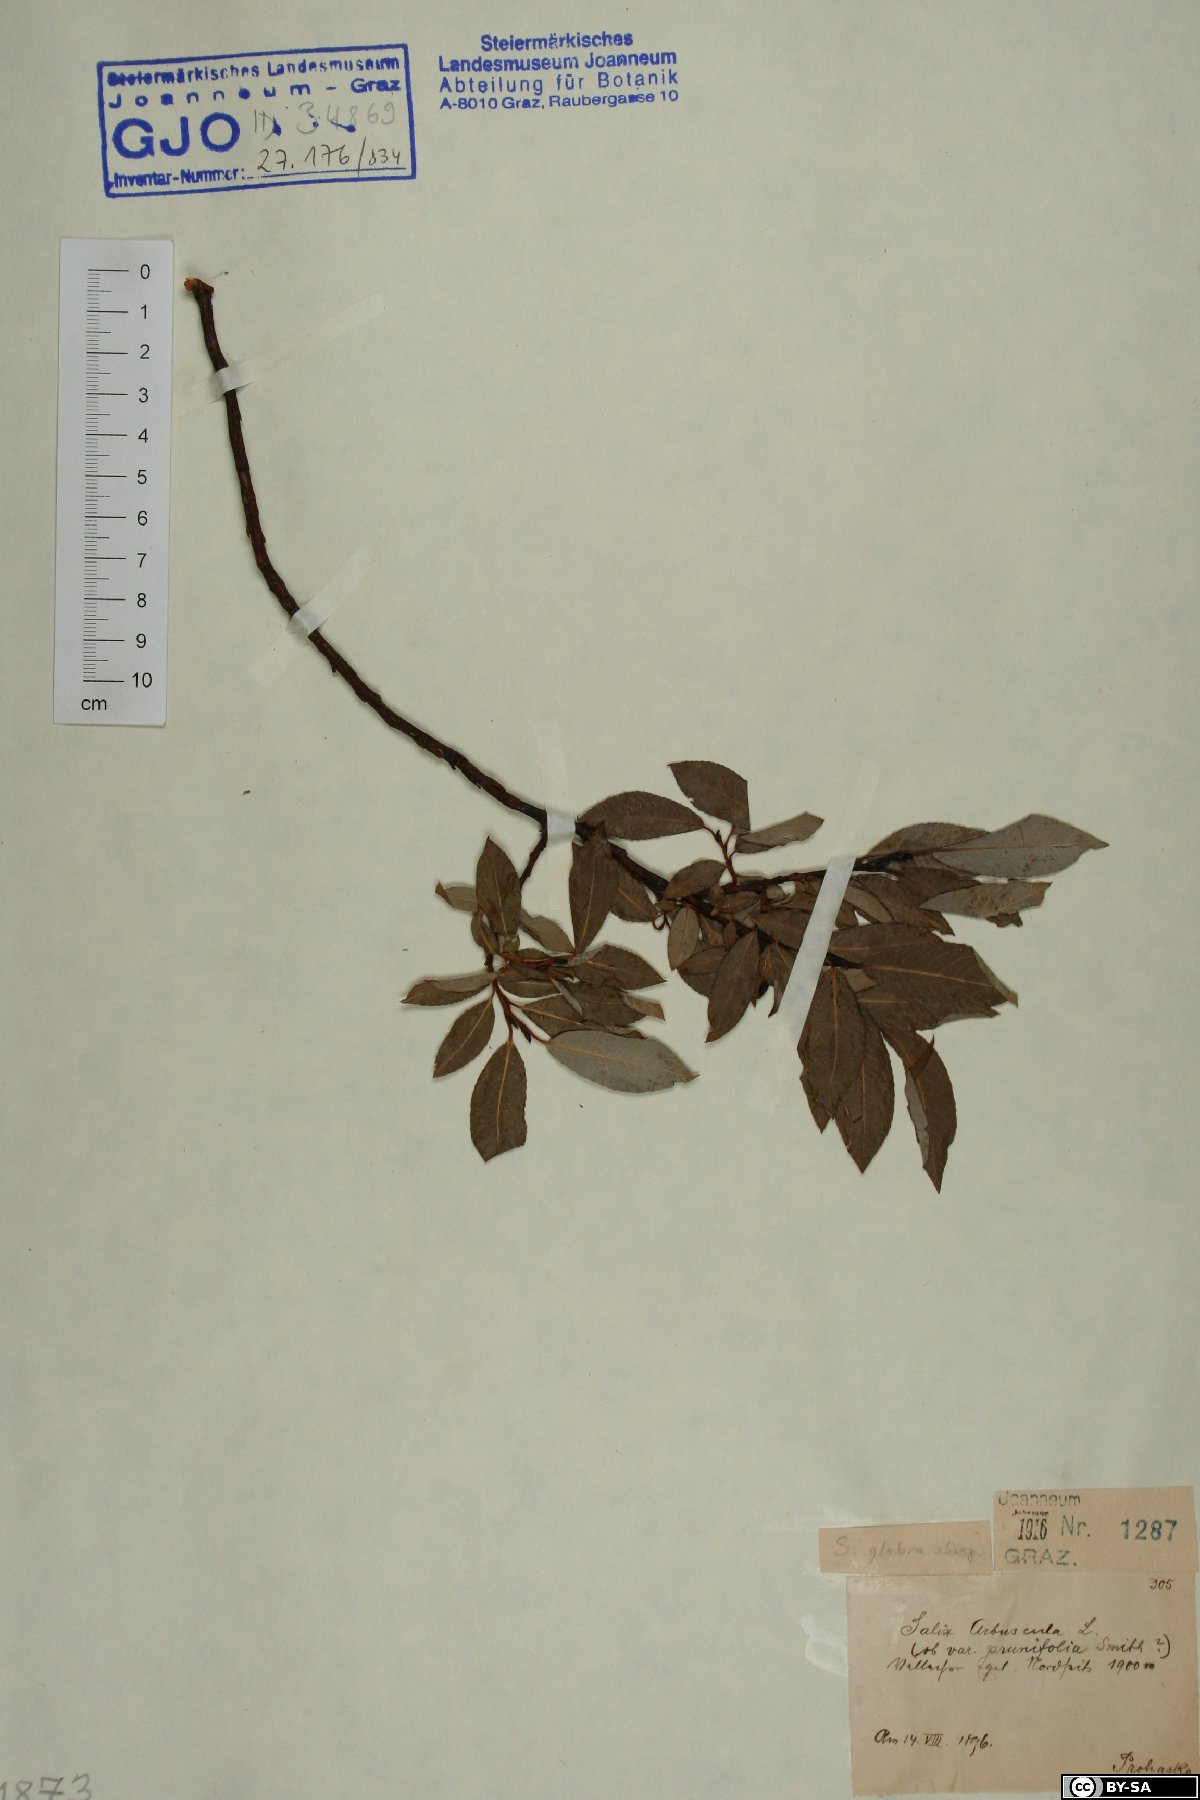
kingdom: Plantae
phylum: Tracheophyta
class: Magnoliopsida
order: Malpighiales
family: Salicaceae
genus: Salix
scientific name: Salix glabra
